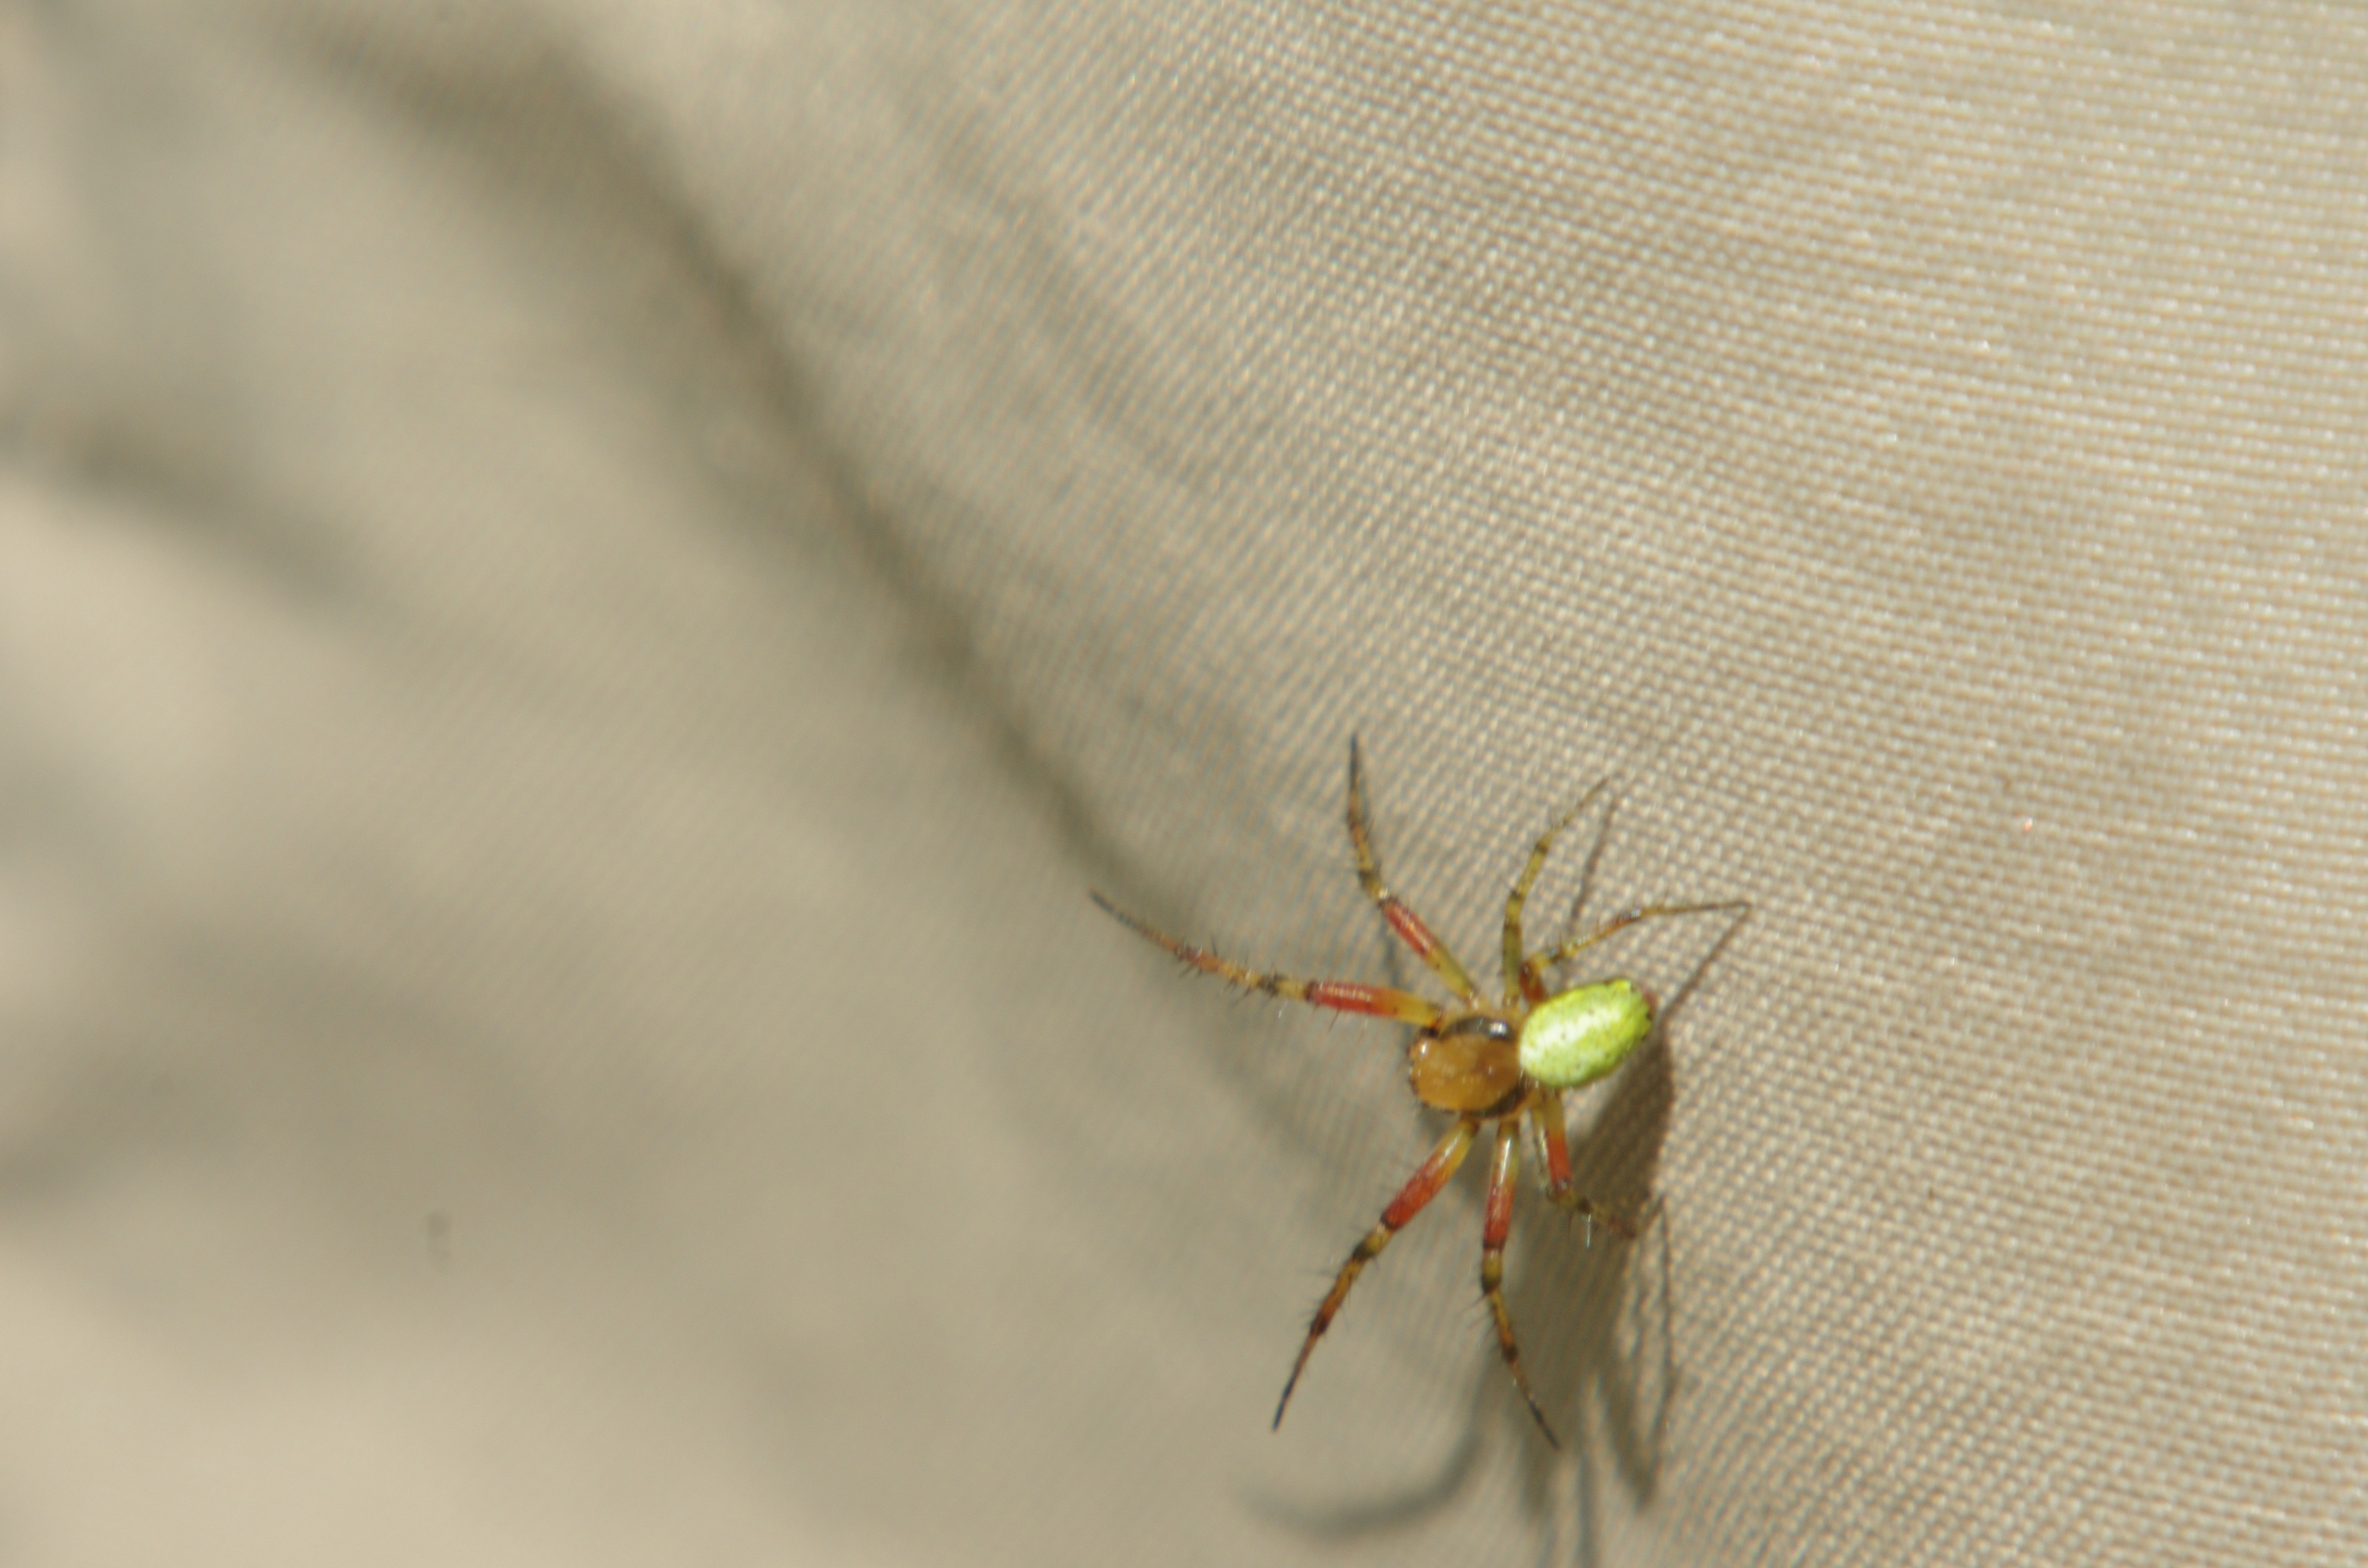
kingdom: Animalia
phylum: Arthropoda
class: Arachnida
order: Araneae
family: Araneidae
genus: Araniella
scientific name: Araniella
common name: Agurkeedderkopslægten
